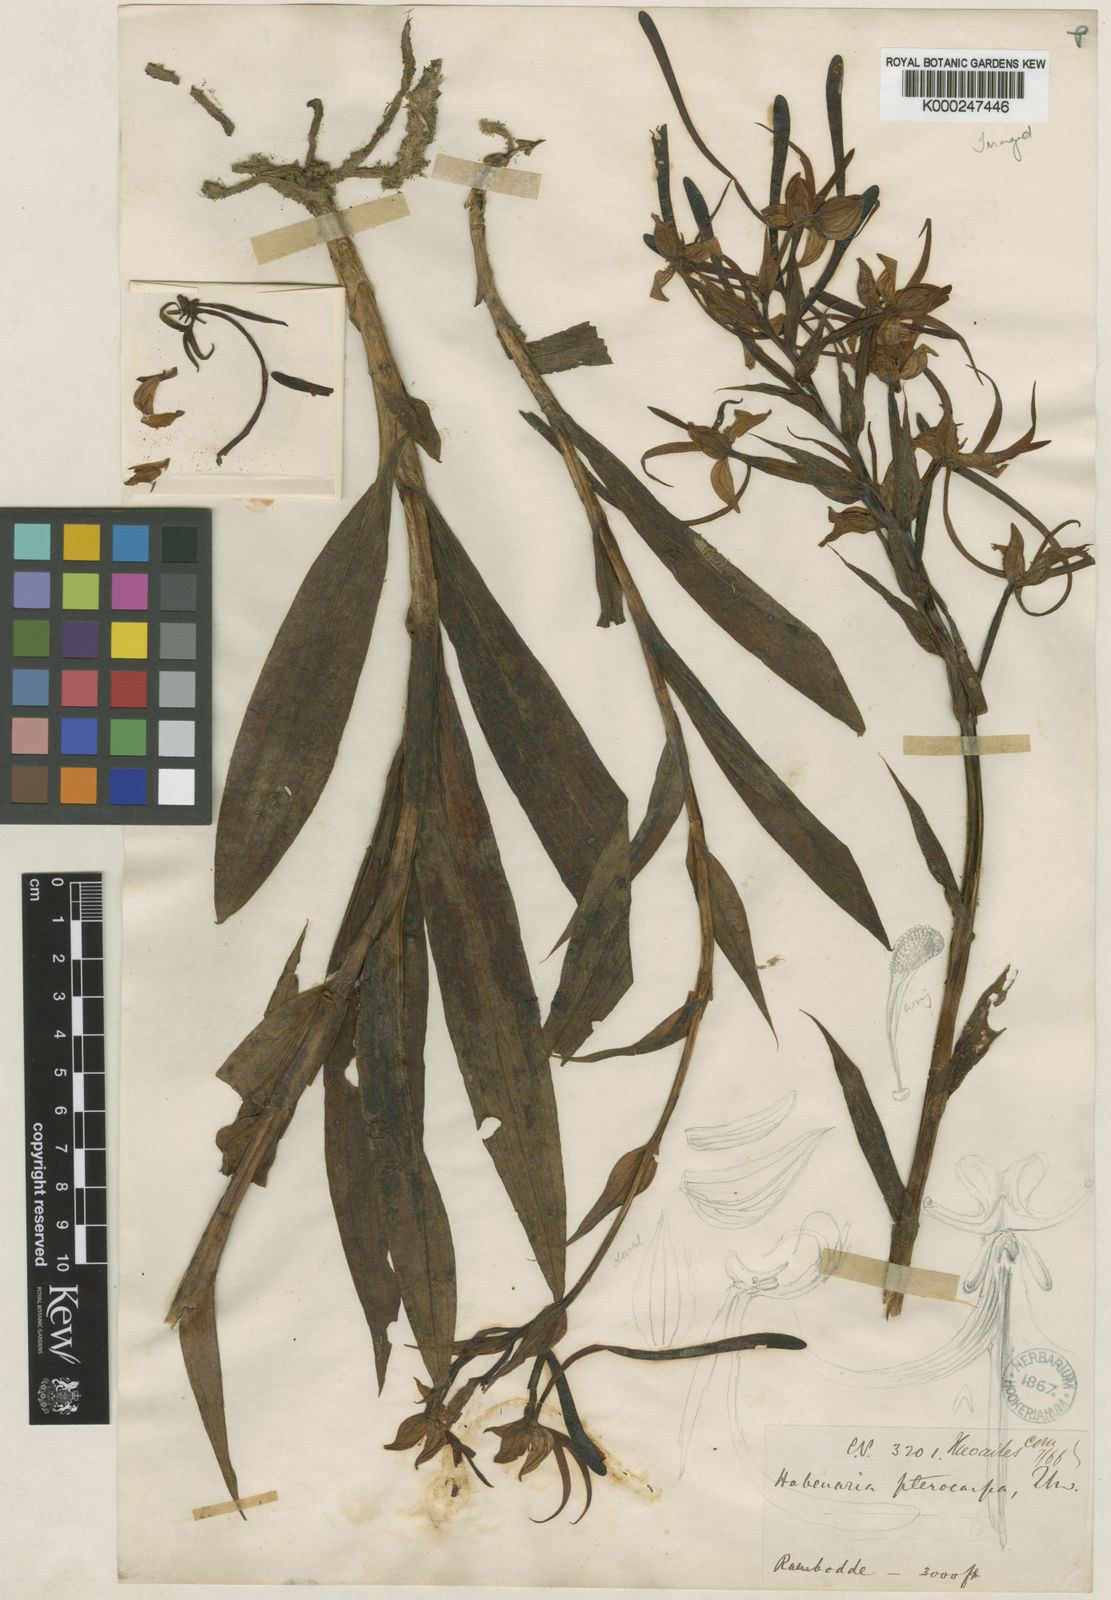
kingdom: Plantae
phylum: Tracheophyta
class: Liliopsida
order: Asparagales
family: Orchidaceae
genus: Habenaria
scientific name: Habenaria pterocarpa
